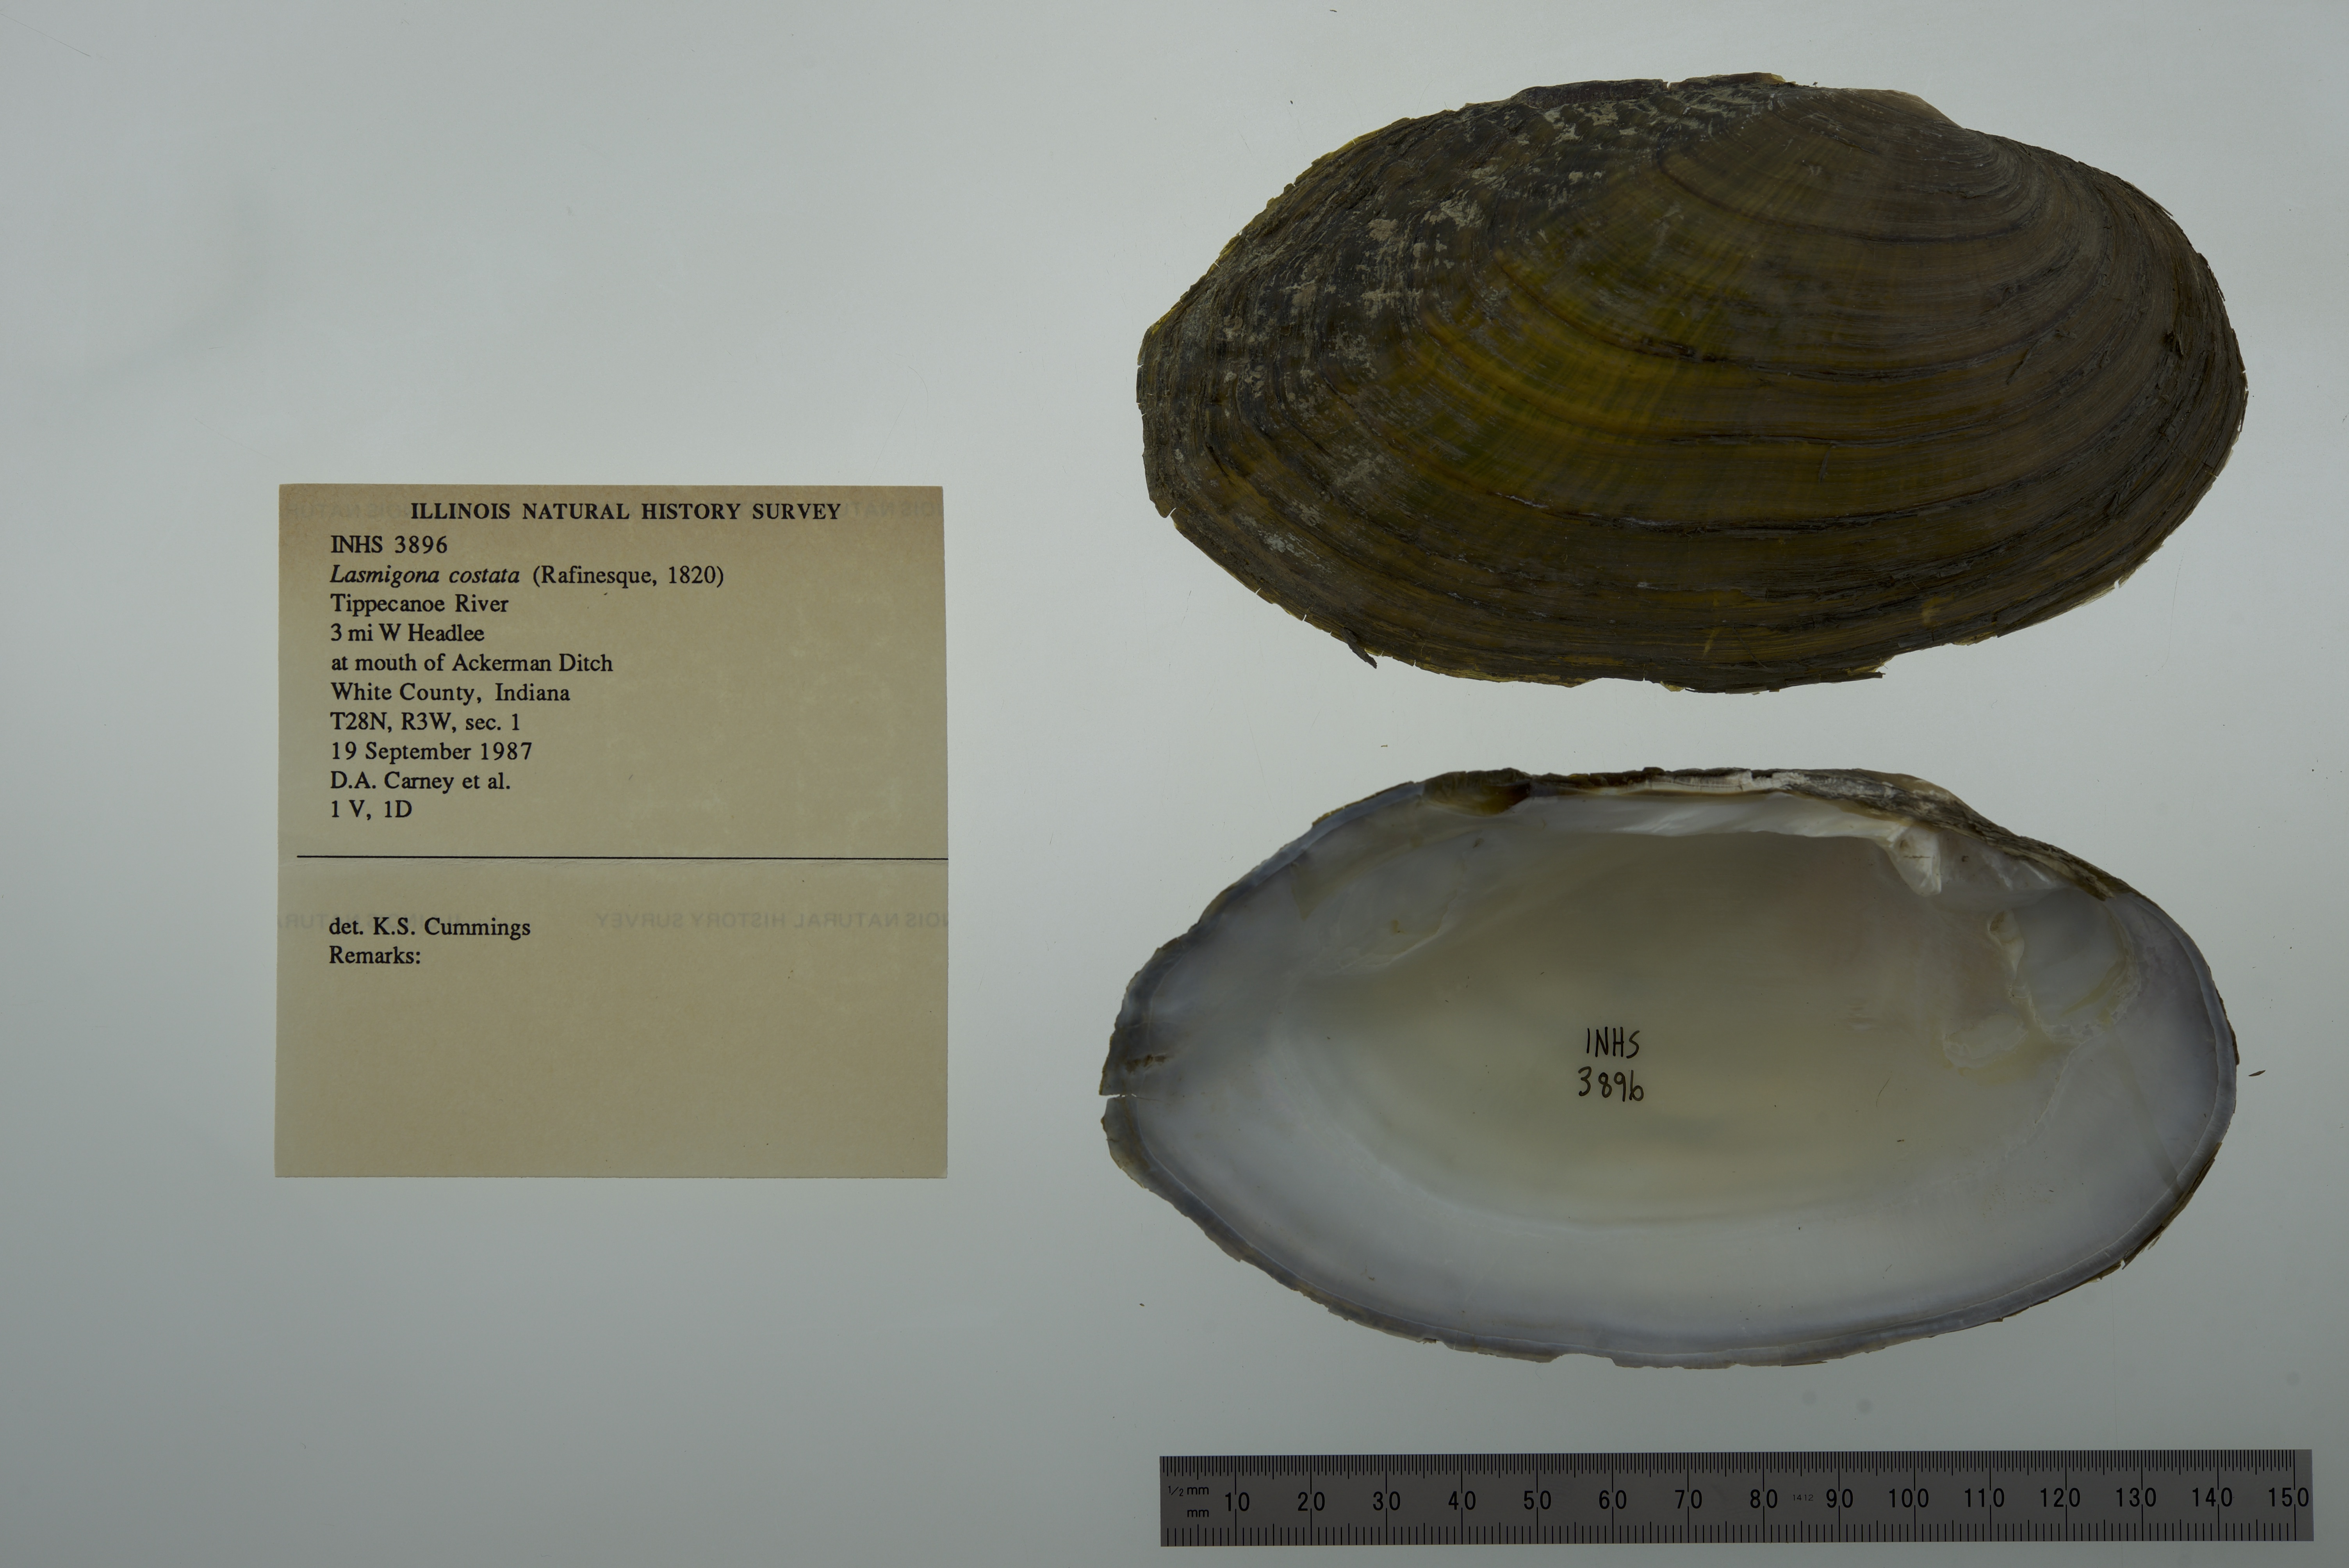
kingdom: Animalia
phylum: Mollusca
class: Bivalvia
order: Unionida
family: Unionidae
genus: Lasmigona
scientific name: Lasmigona costata
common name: Flutedshell
